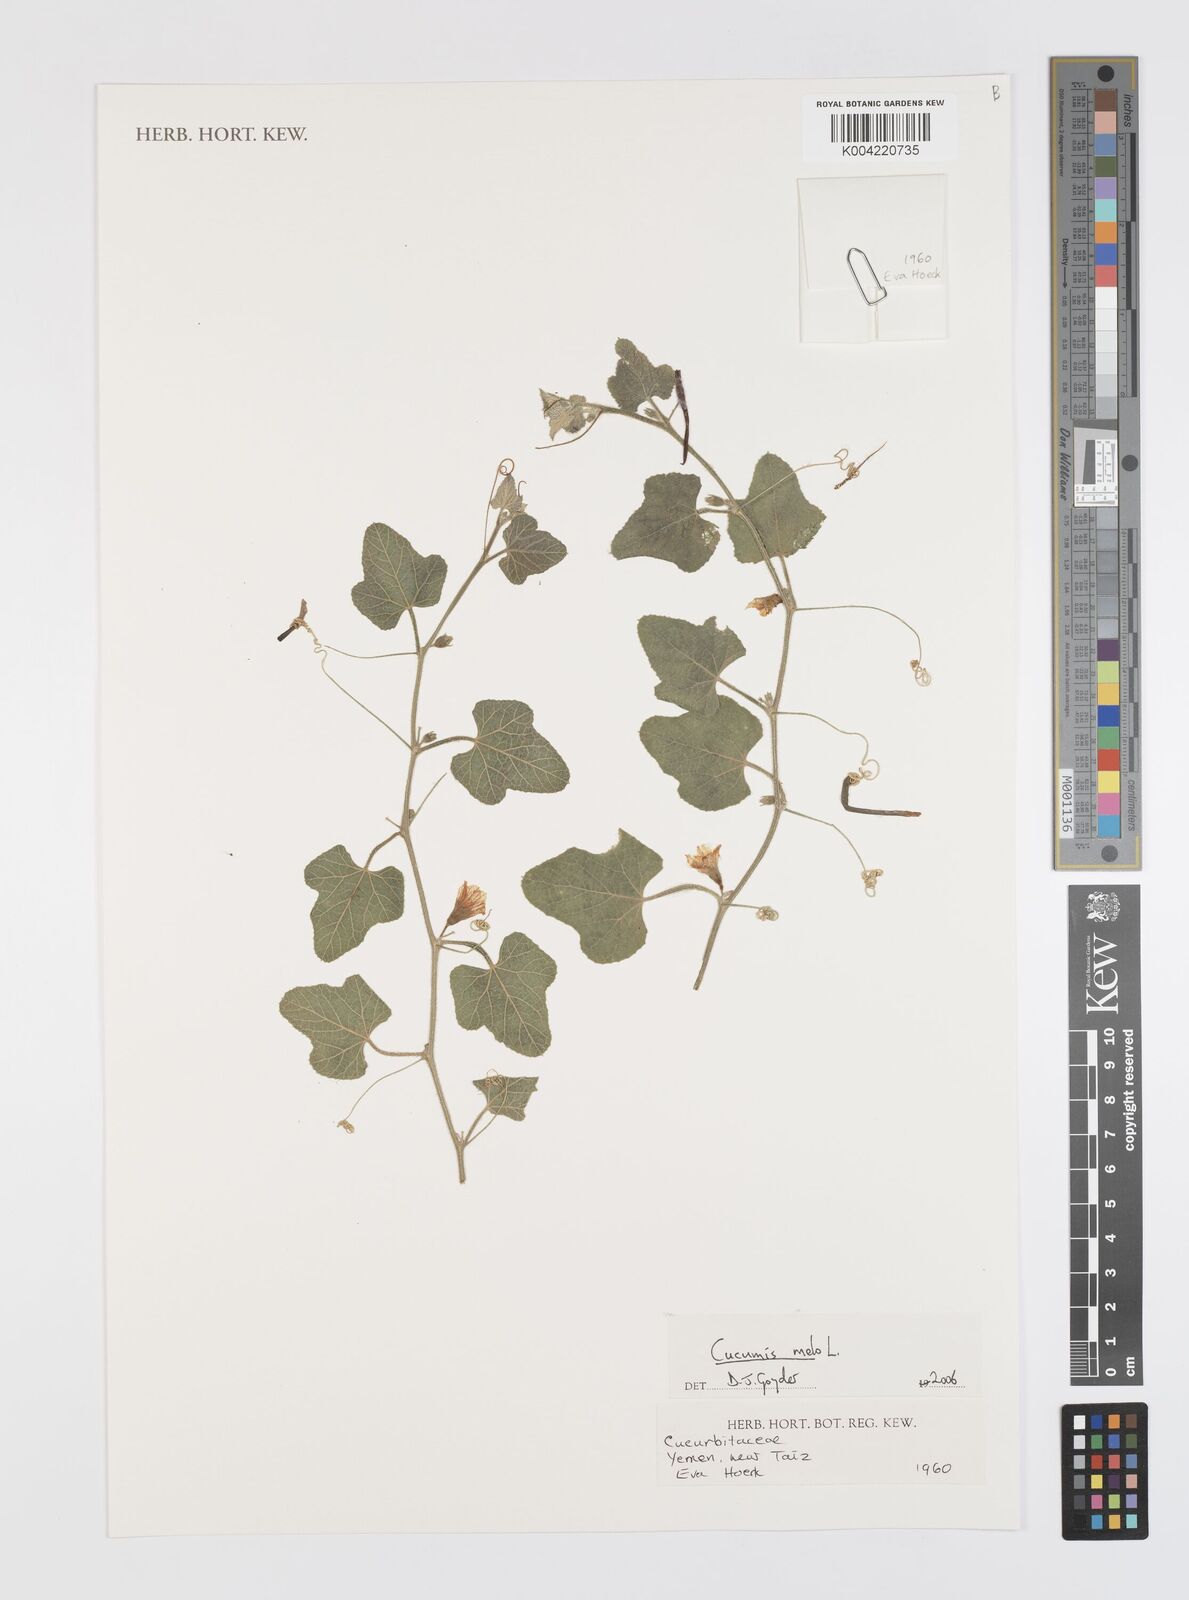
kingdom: Plantae
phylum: Tracheophyta
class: Magnoliopsida
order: Cucurbitales
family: Cucurbitaceae
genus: Cucumis
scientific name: Cucumis melo
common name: Melon
